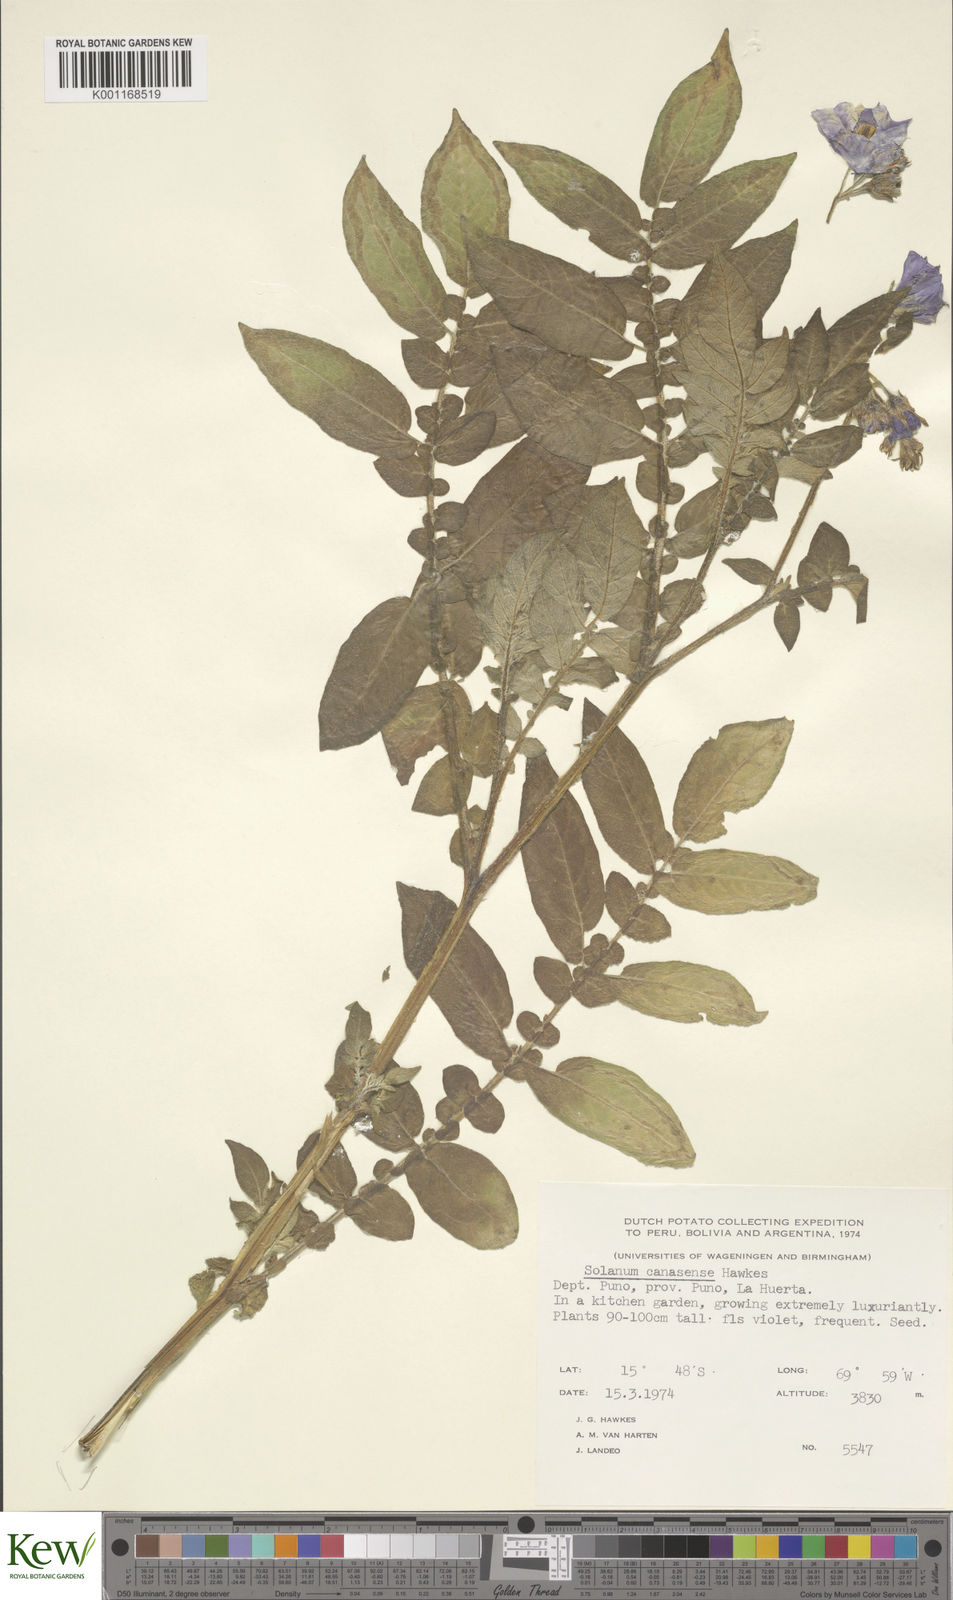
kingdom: Plantae
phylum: Tracheophyta
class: Magnoliopsida
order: Solanales
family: Solanaceae
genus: Solanum
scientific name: Solanum candolleanum
